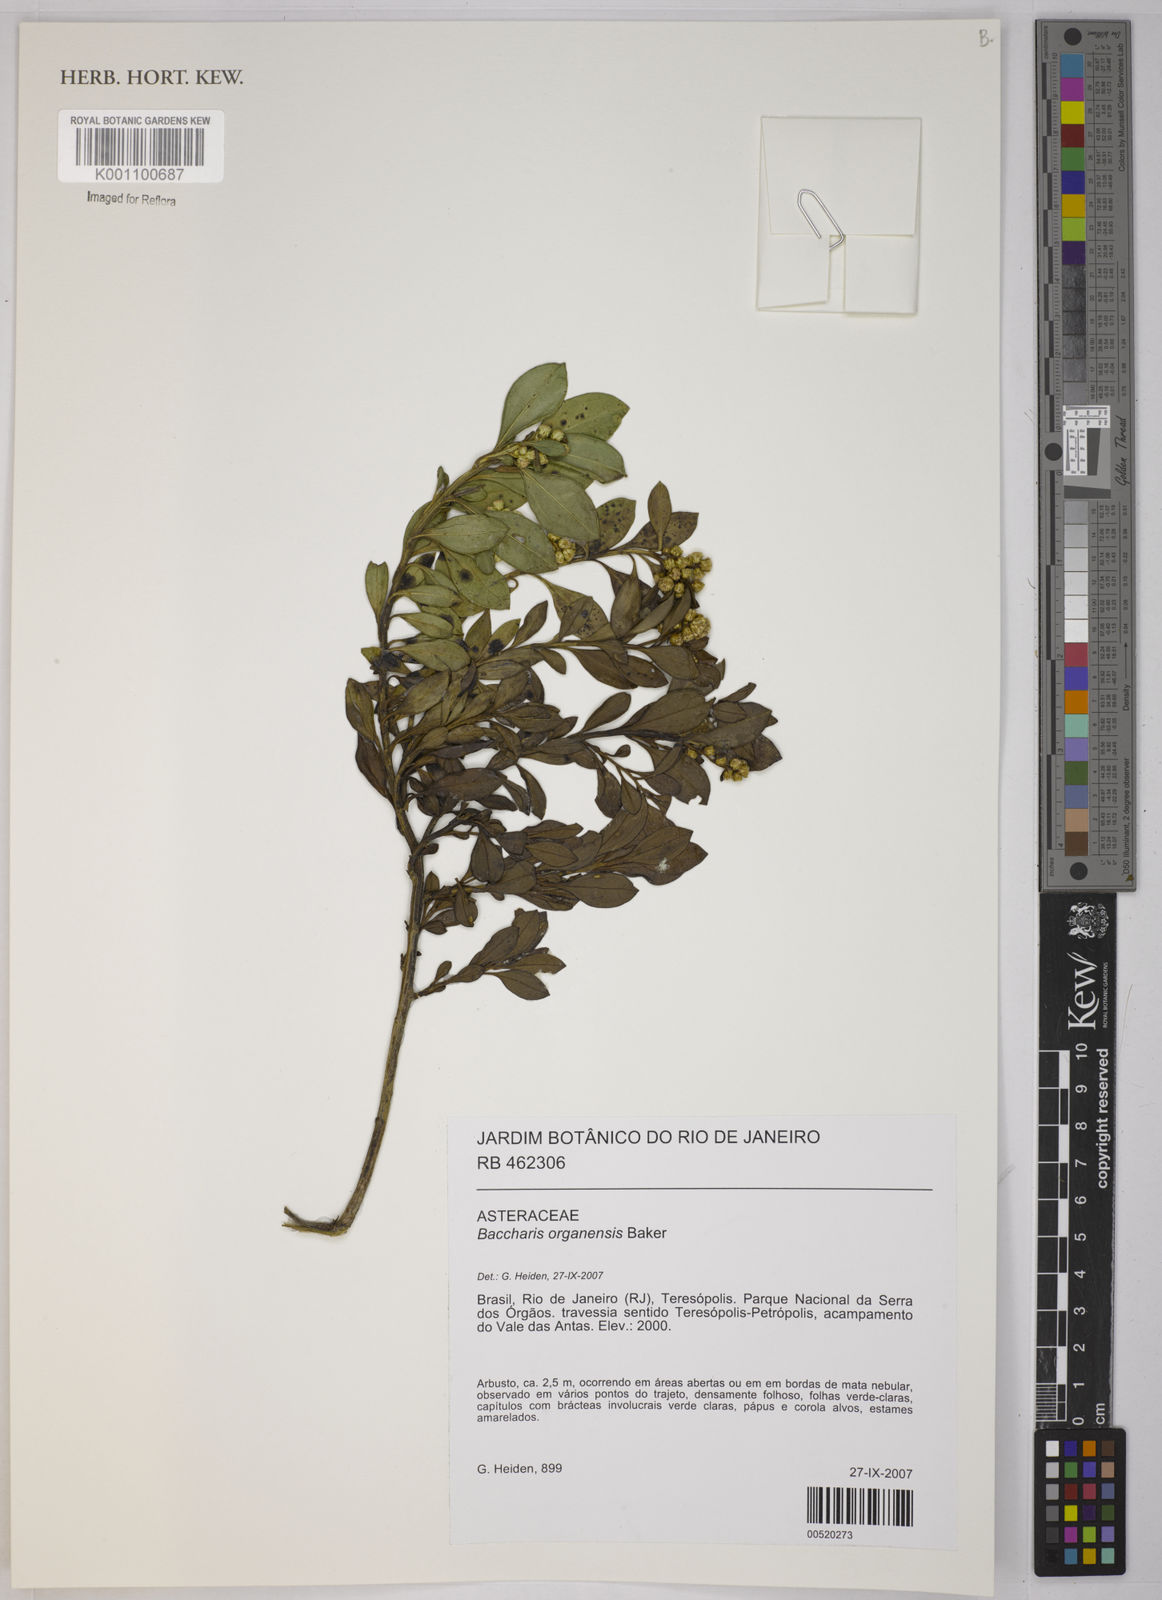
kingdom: Plantae
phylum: Tracheophyta
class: Magnoliopsida
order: Asterales
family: Asteraceae
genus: Baccharis
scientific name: Baccharis organensis
